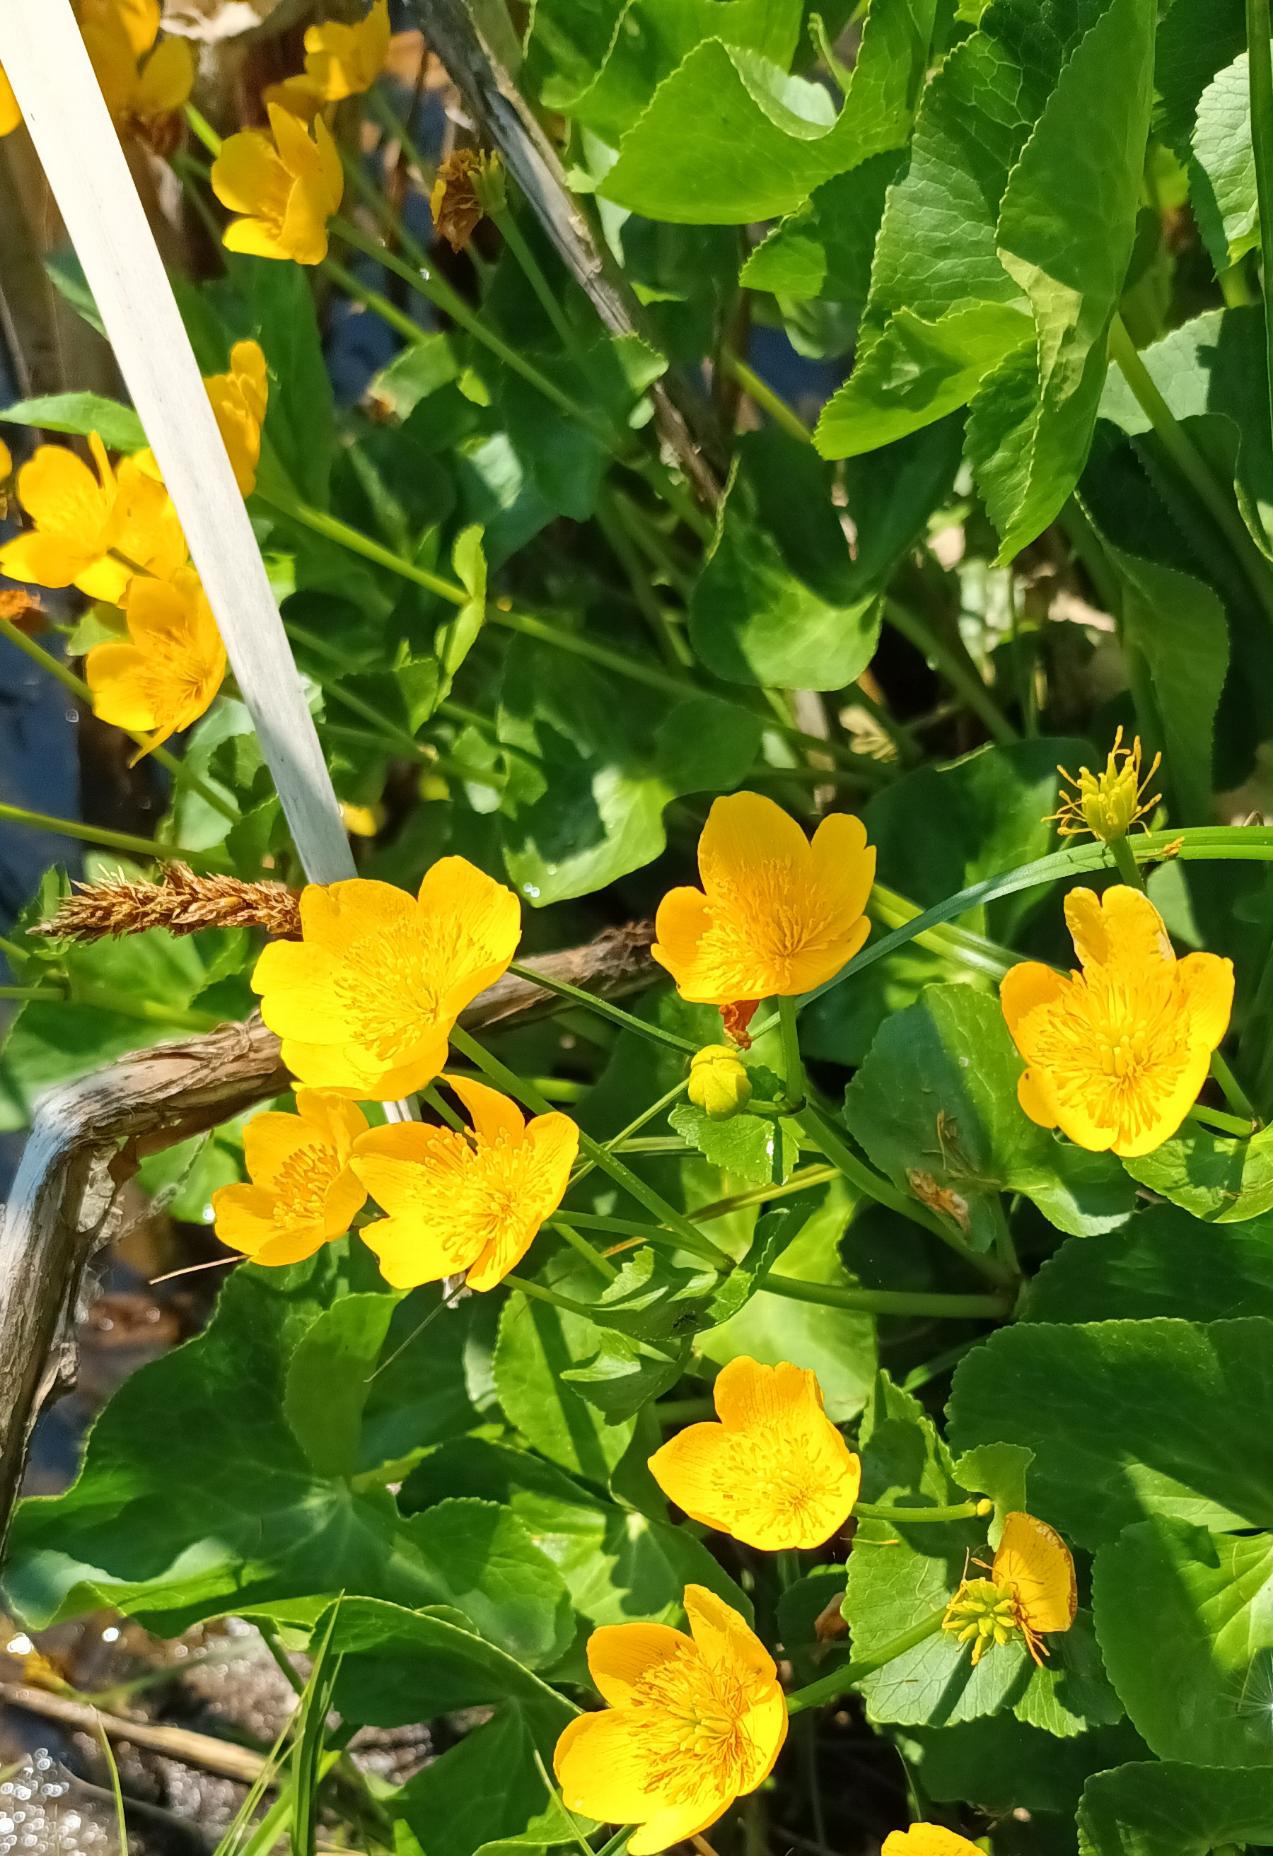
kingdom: Plantae
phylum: Tracheophyta
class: Magnoliopsida
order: Ranunculales
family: Ranunculaceae
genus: Caltha
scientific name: Caltha palustris
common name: Eng-kabbeleje
